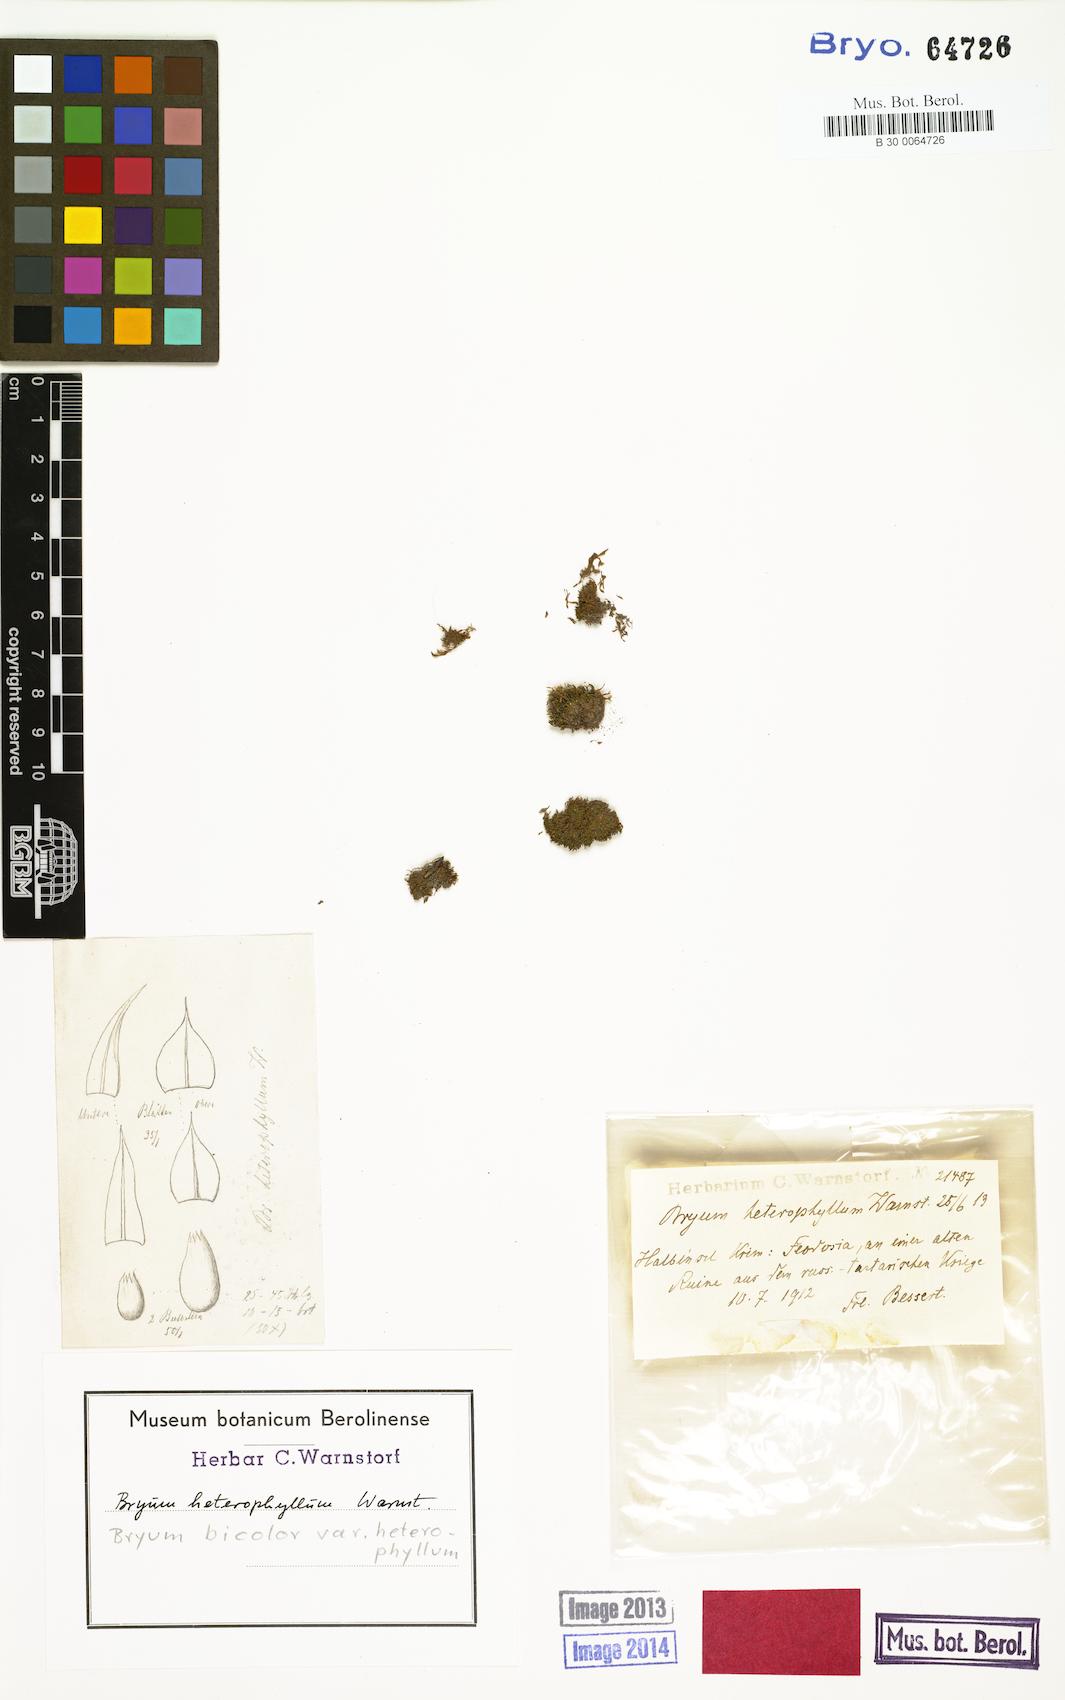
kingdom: Plantae
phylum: Bryophyta
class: Bryopsida
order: Bryales
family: Bryaceae
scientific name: Bryaceae
